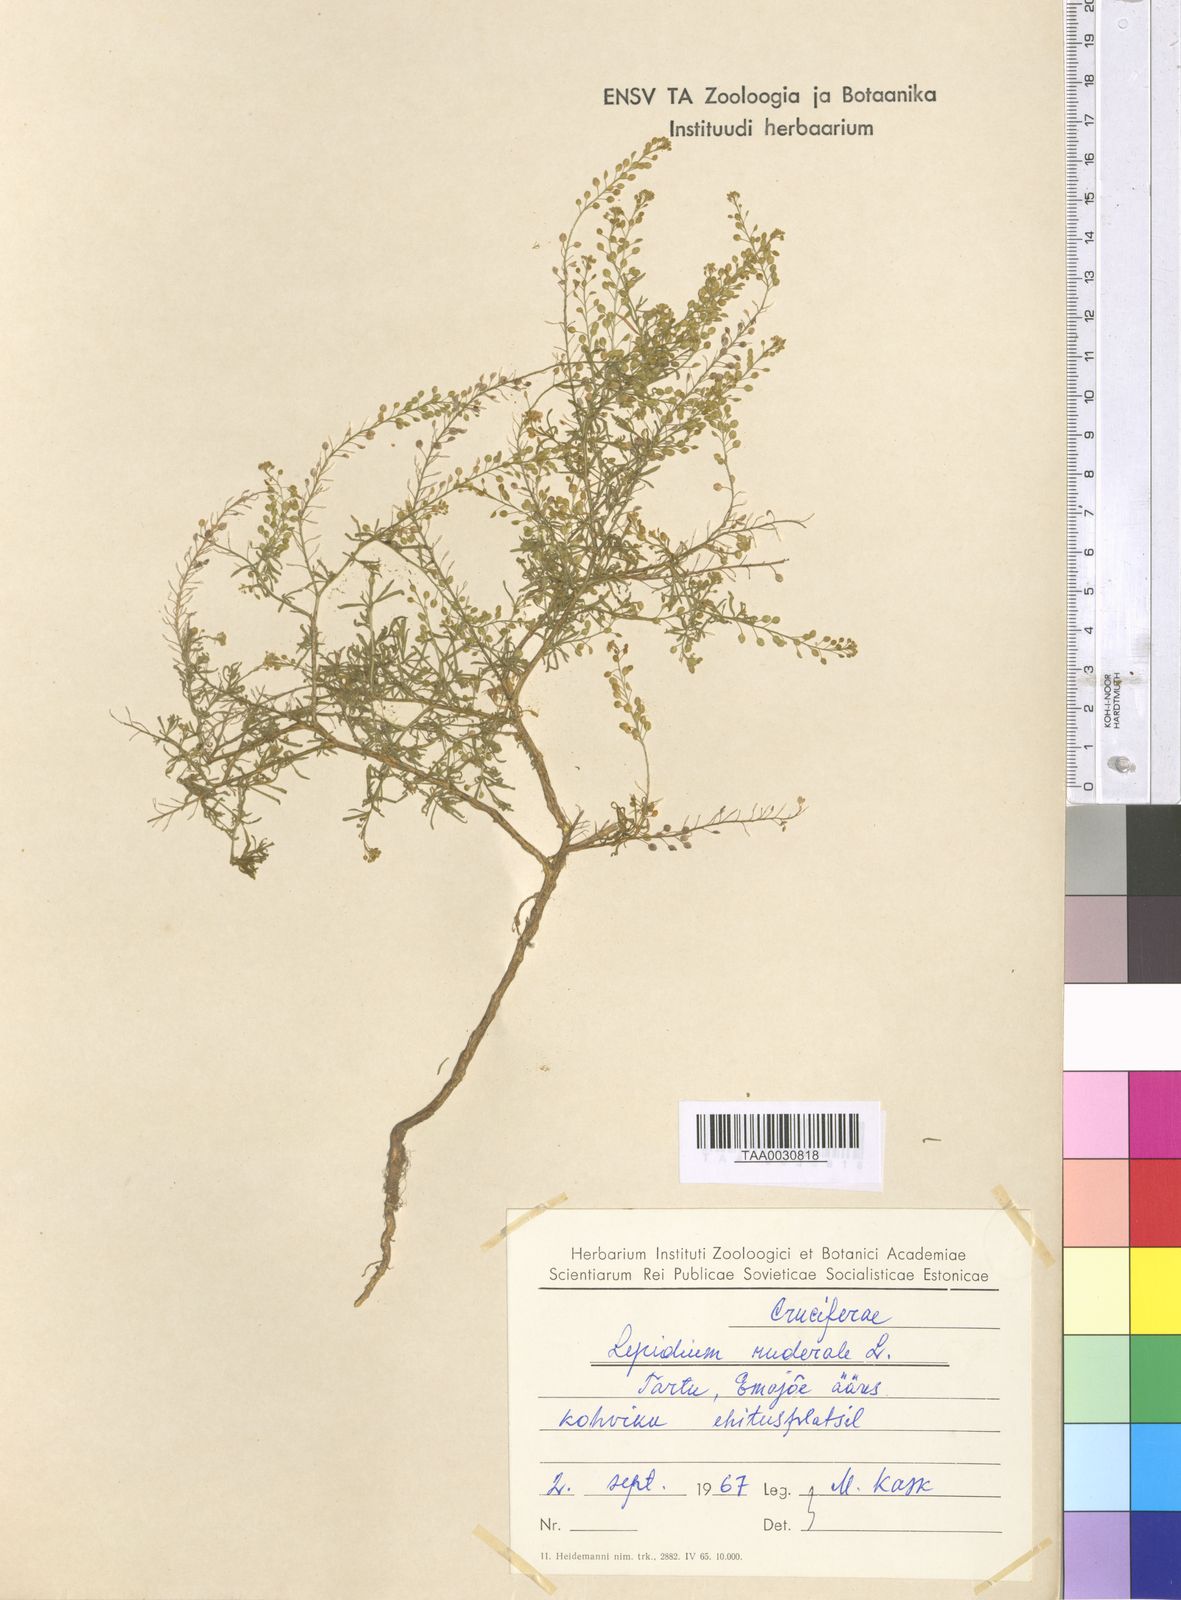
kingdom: Plantae
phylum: Tracheophyta
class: Magnoliopsida
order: Brassicales
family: Brassicaceae
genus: Lepidium
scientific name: Lepidium ruderale
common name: Narrow-leaved pepperwort
